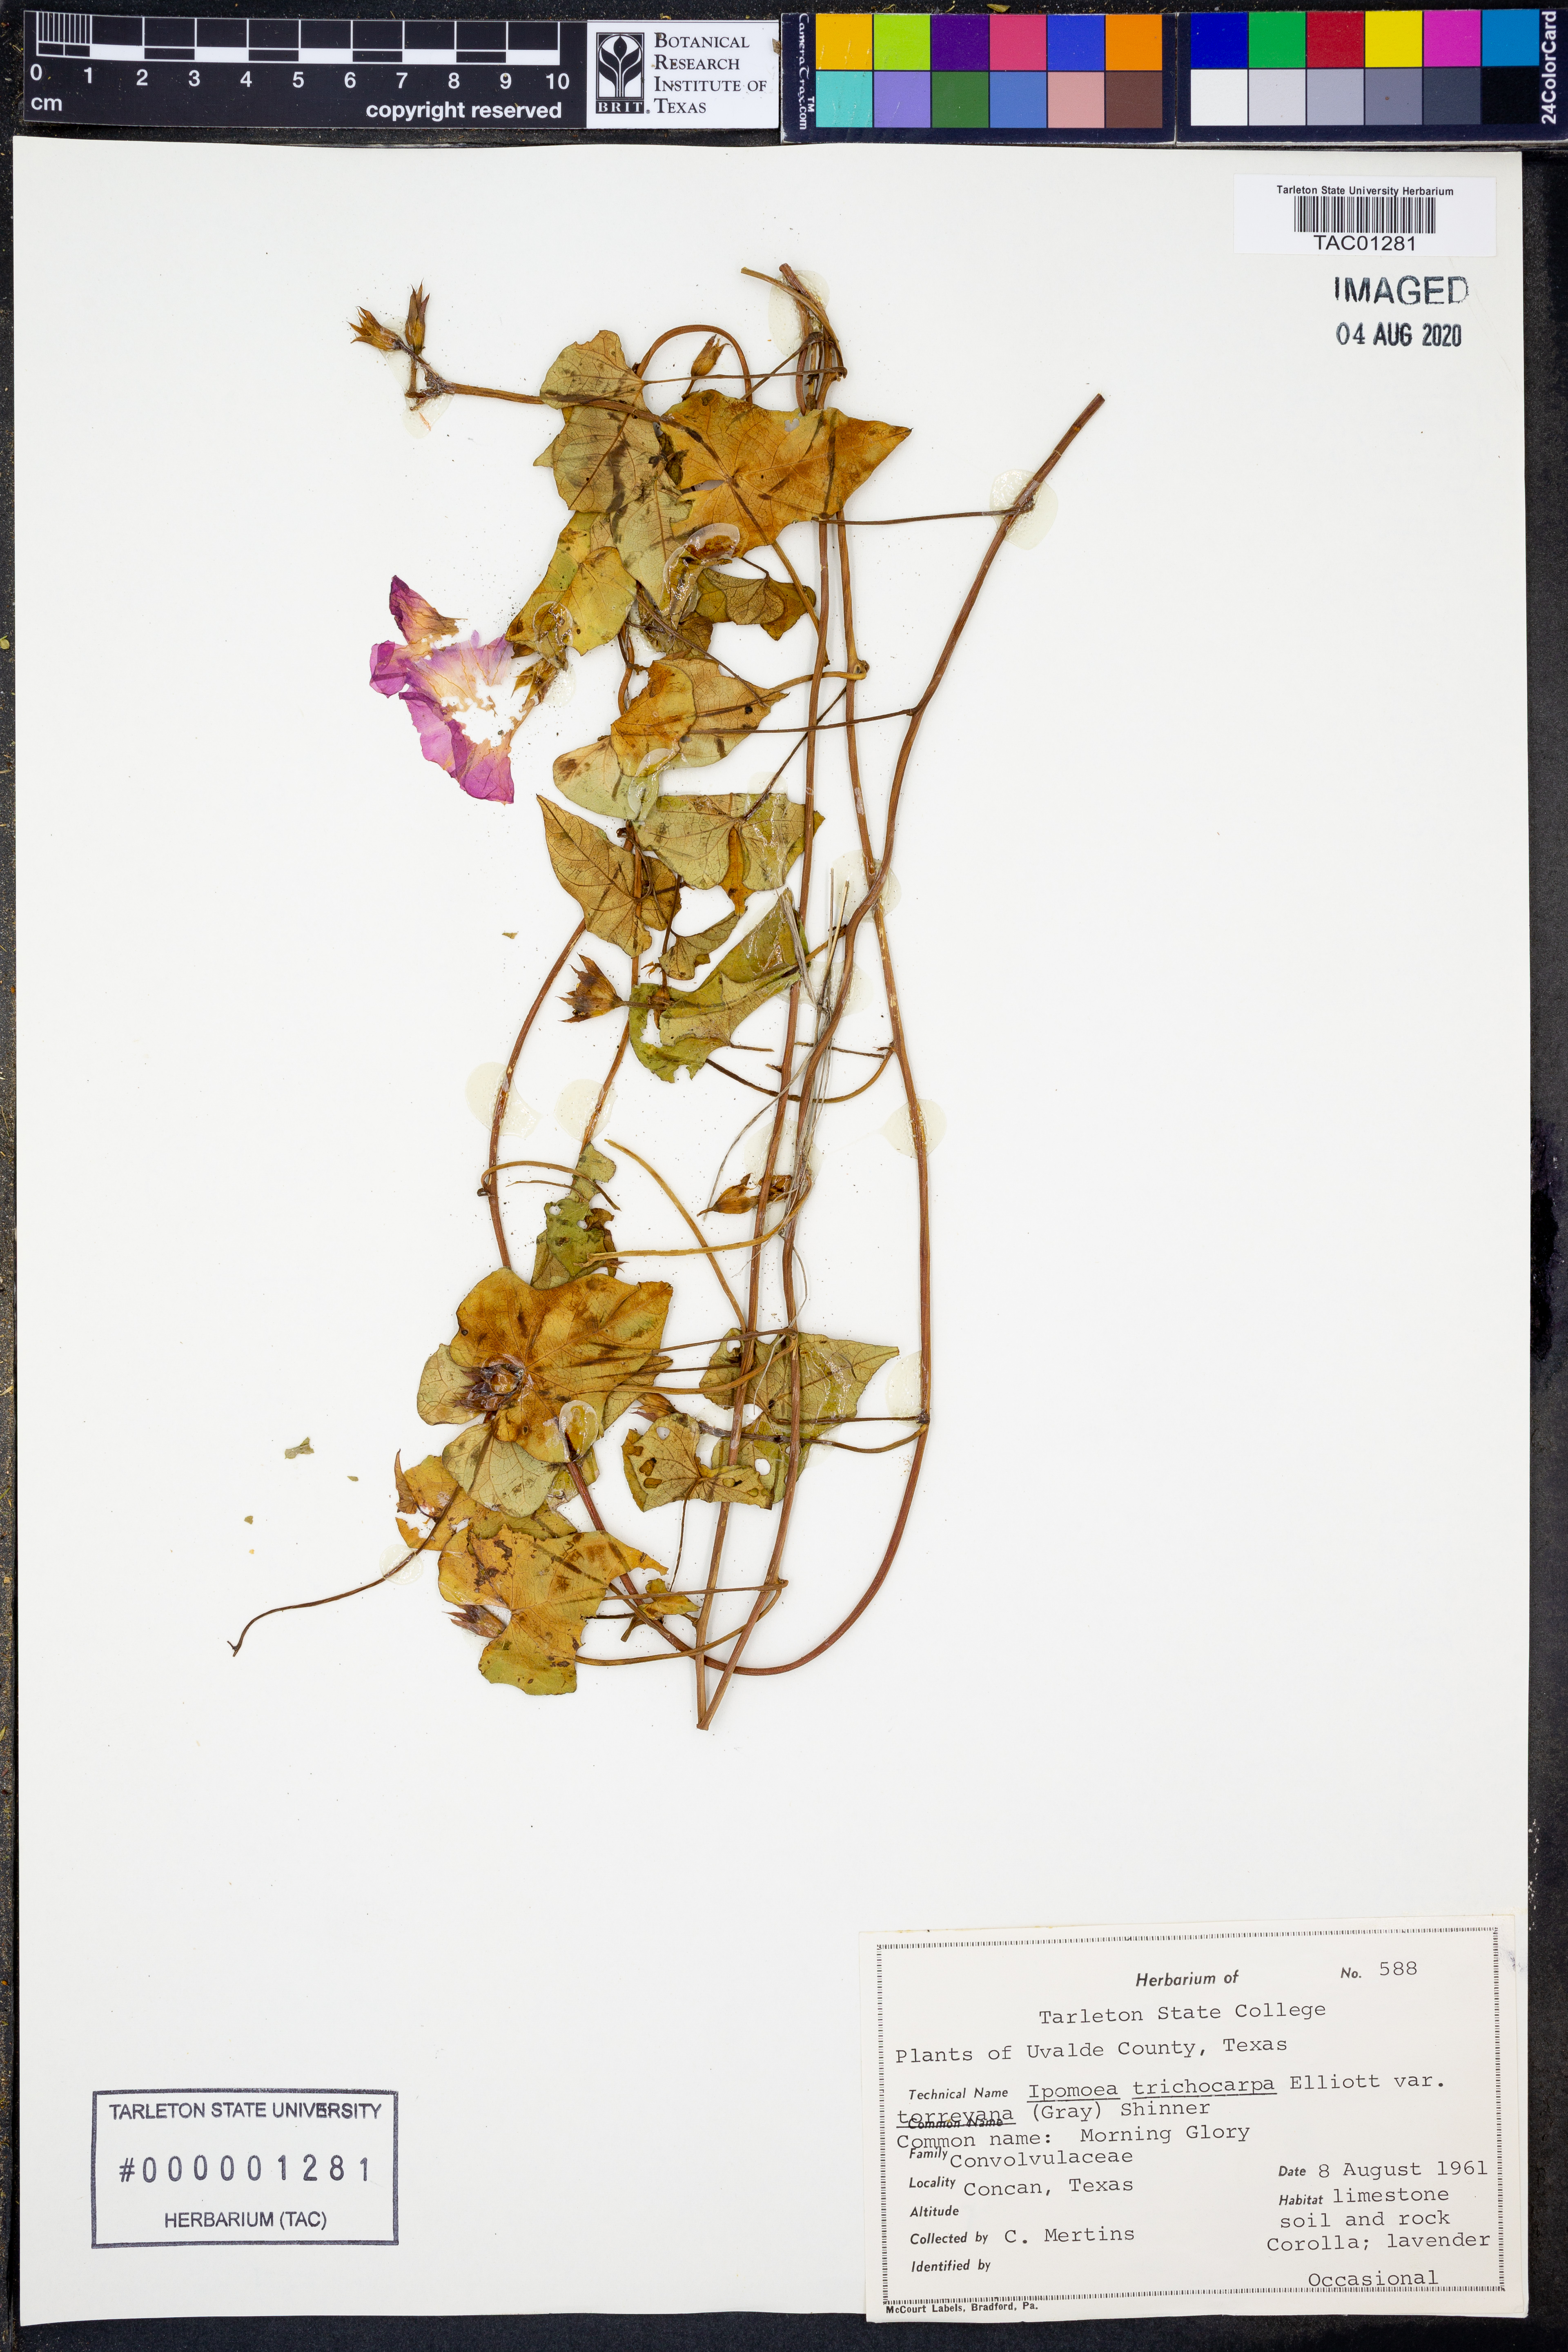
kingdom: Plantae
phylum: Tracheophyta
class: Magnoliopsida
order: Solanales
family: Convolvulaceae
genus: Ipomoea
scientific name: Ipomoea cordatotriloba
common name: Cotton morning glory
